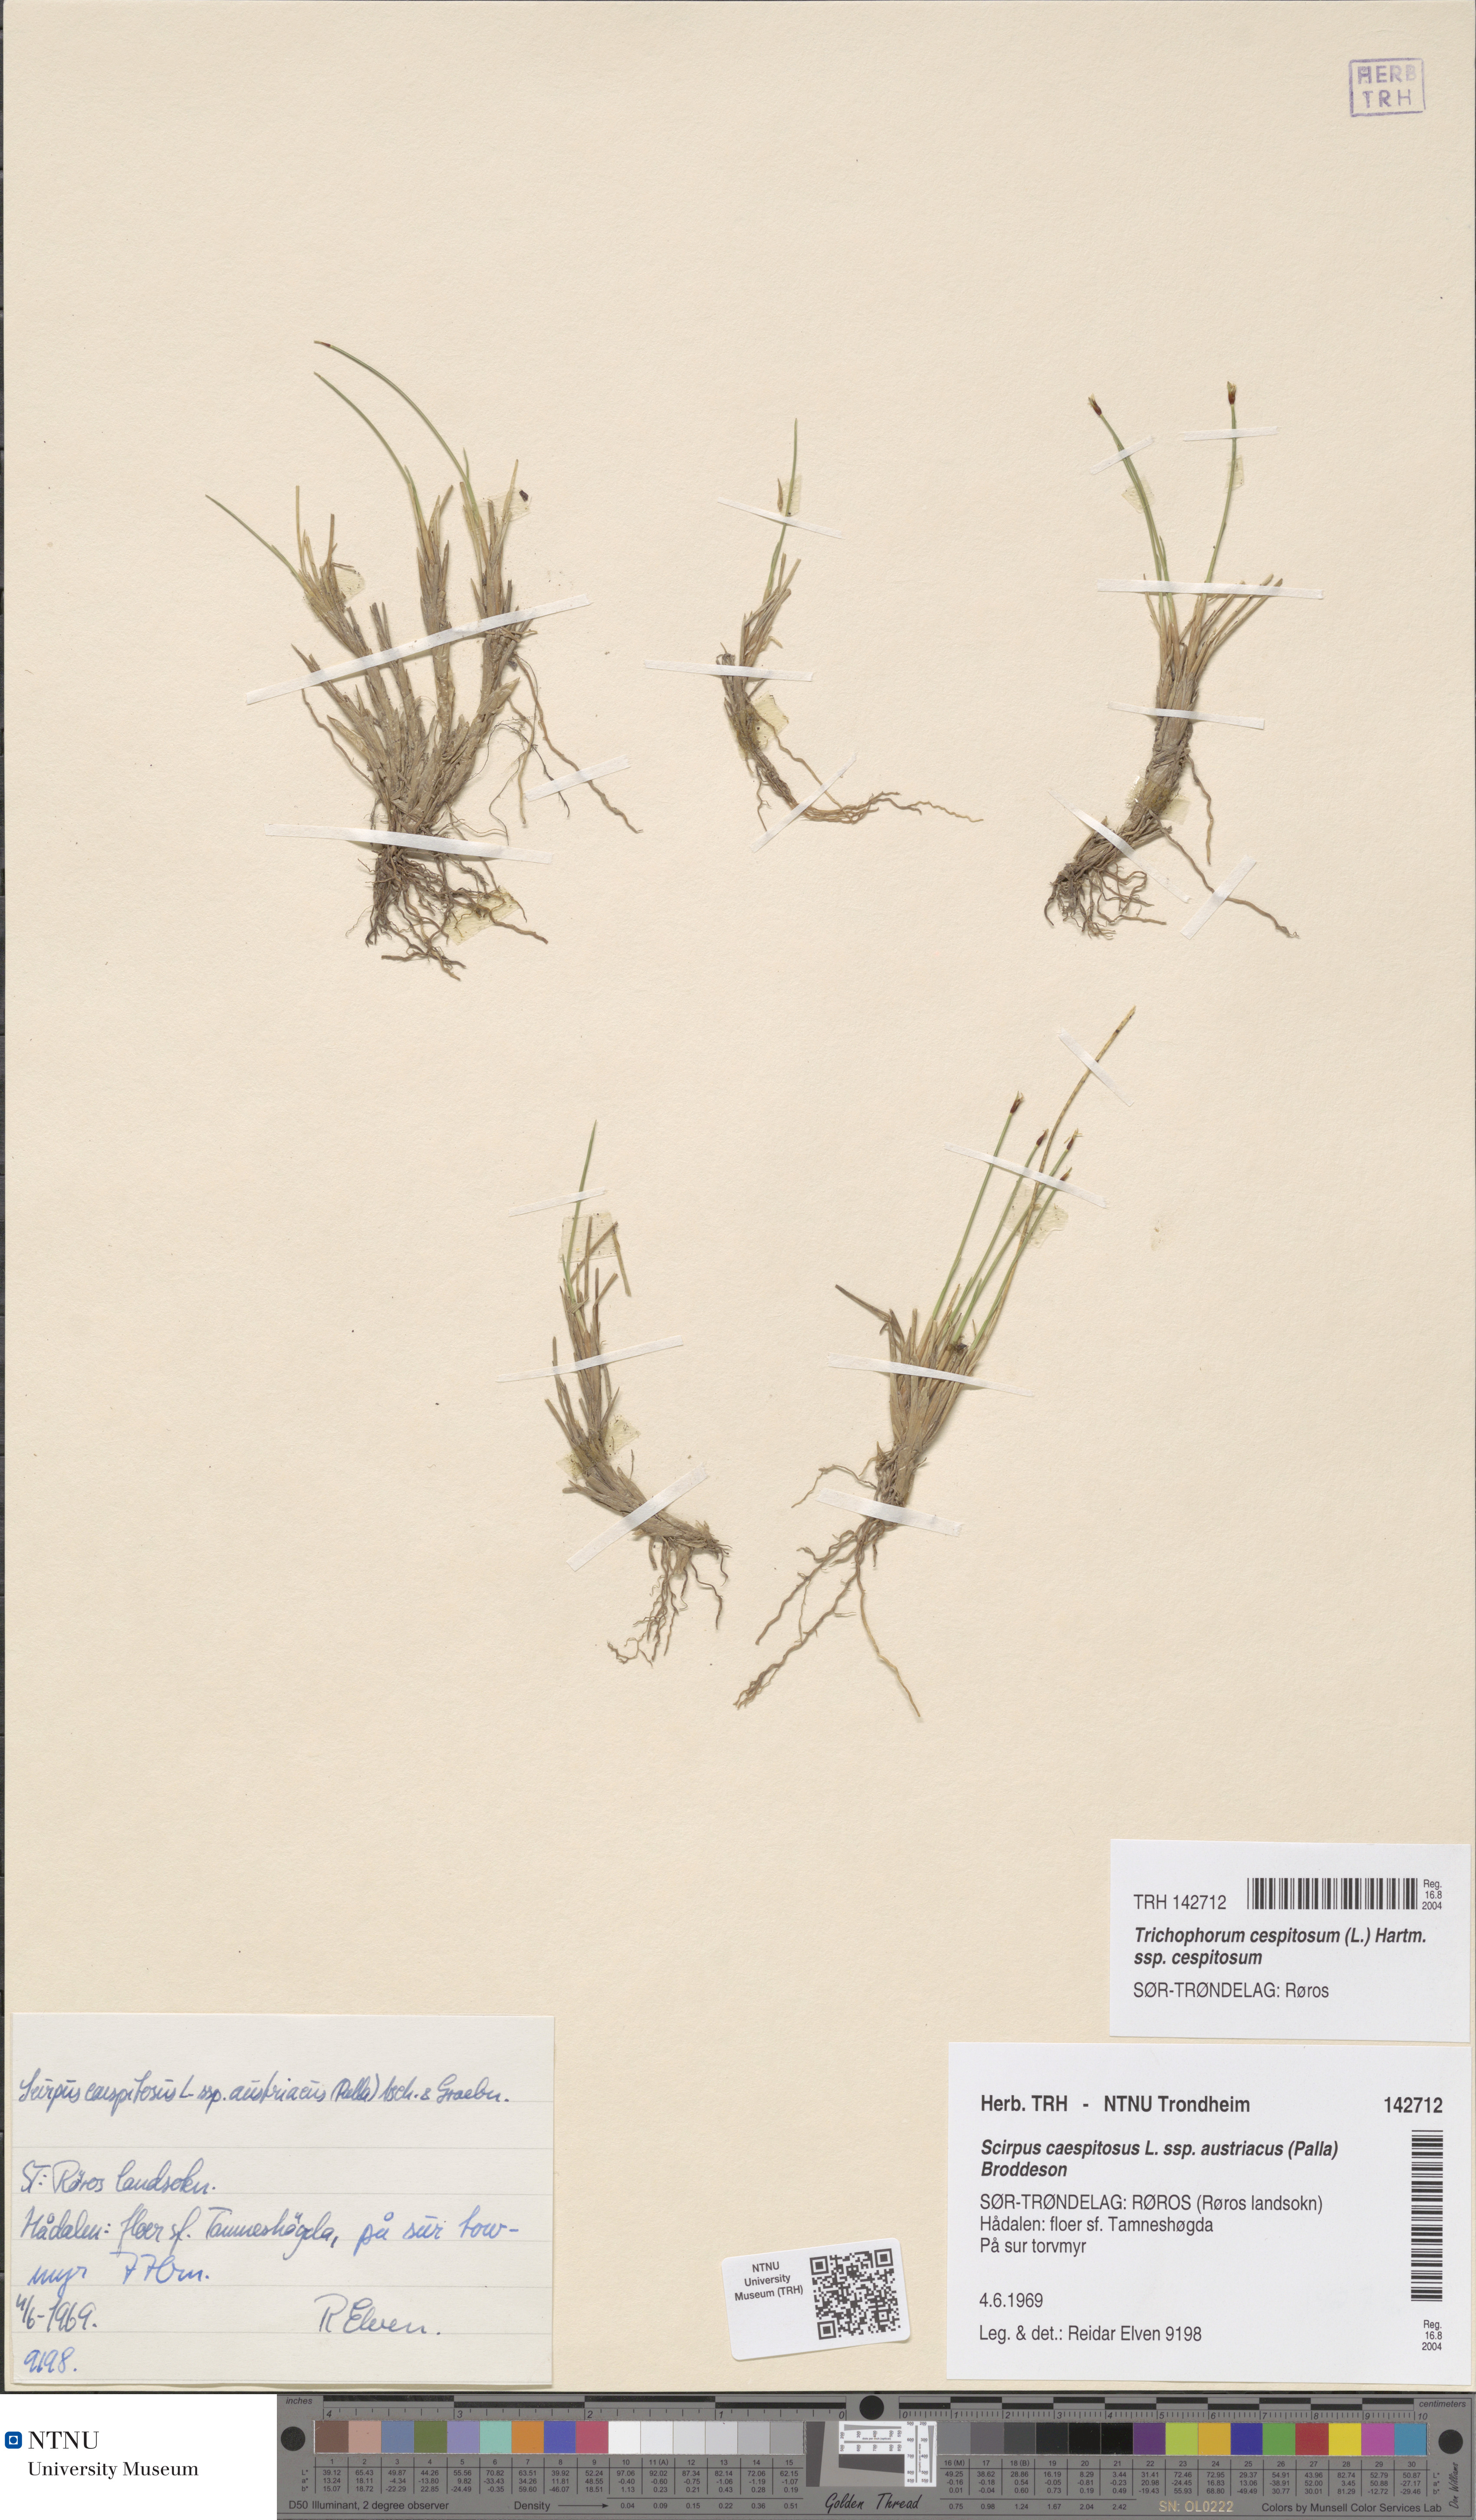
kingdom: Plantae
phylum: Tracheophyta
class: Liliopsida
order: Poales
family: Cyperaceae
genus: Trichophorum
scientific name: Trichophorum cespitosum
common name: Cespitose bulrush
